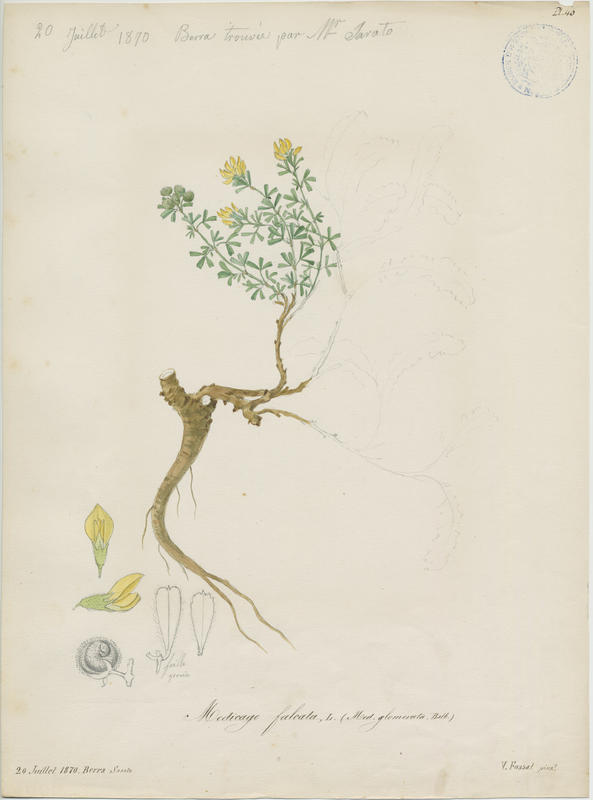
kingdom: Plantae
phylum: Tracheophyta
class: Magnoliopsida
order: Fabales
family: Fabaceae
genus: Medicago
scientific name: Medicago falcata
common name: Sickle medick
